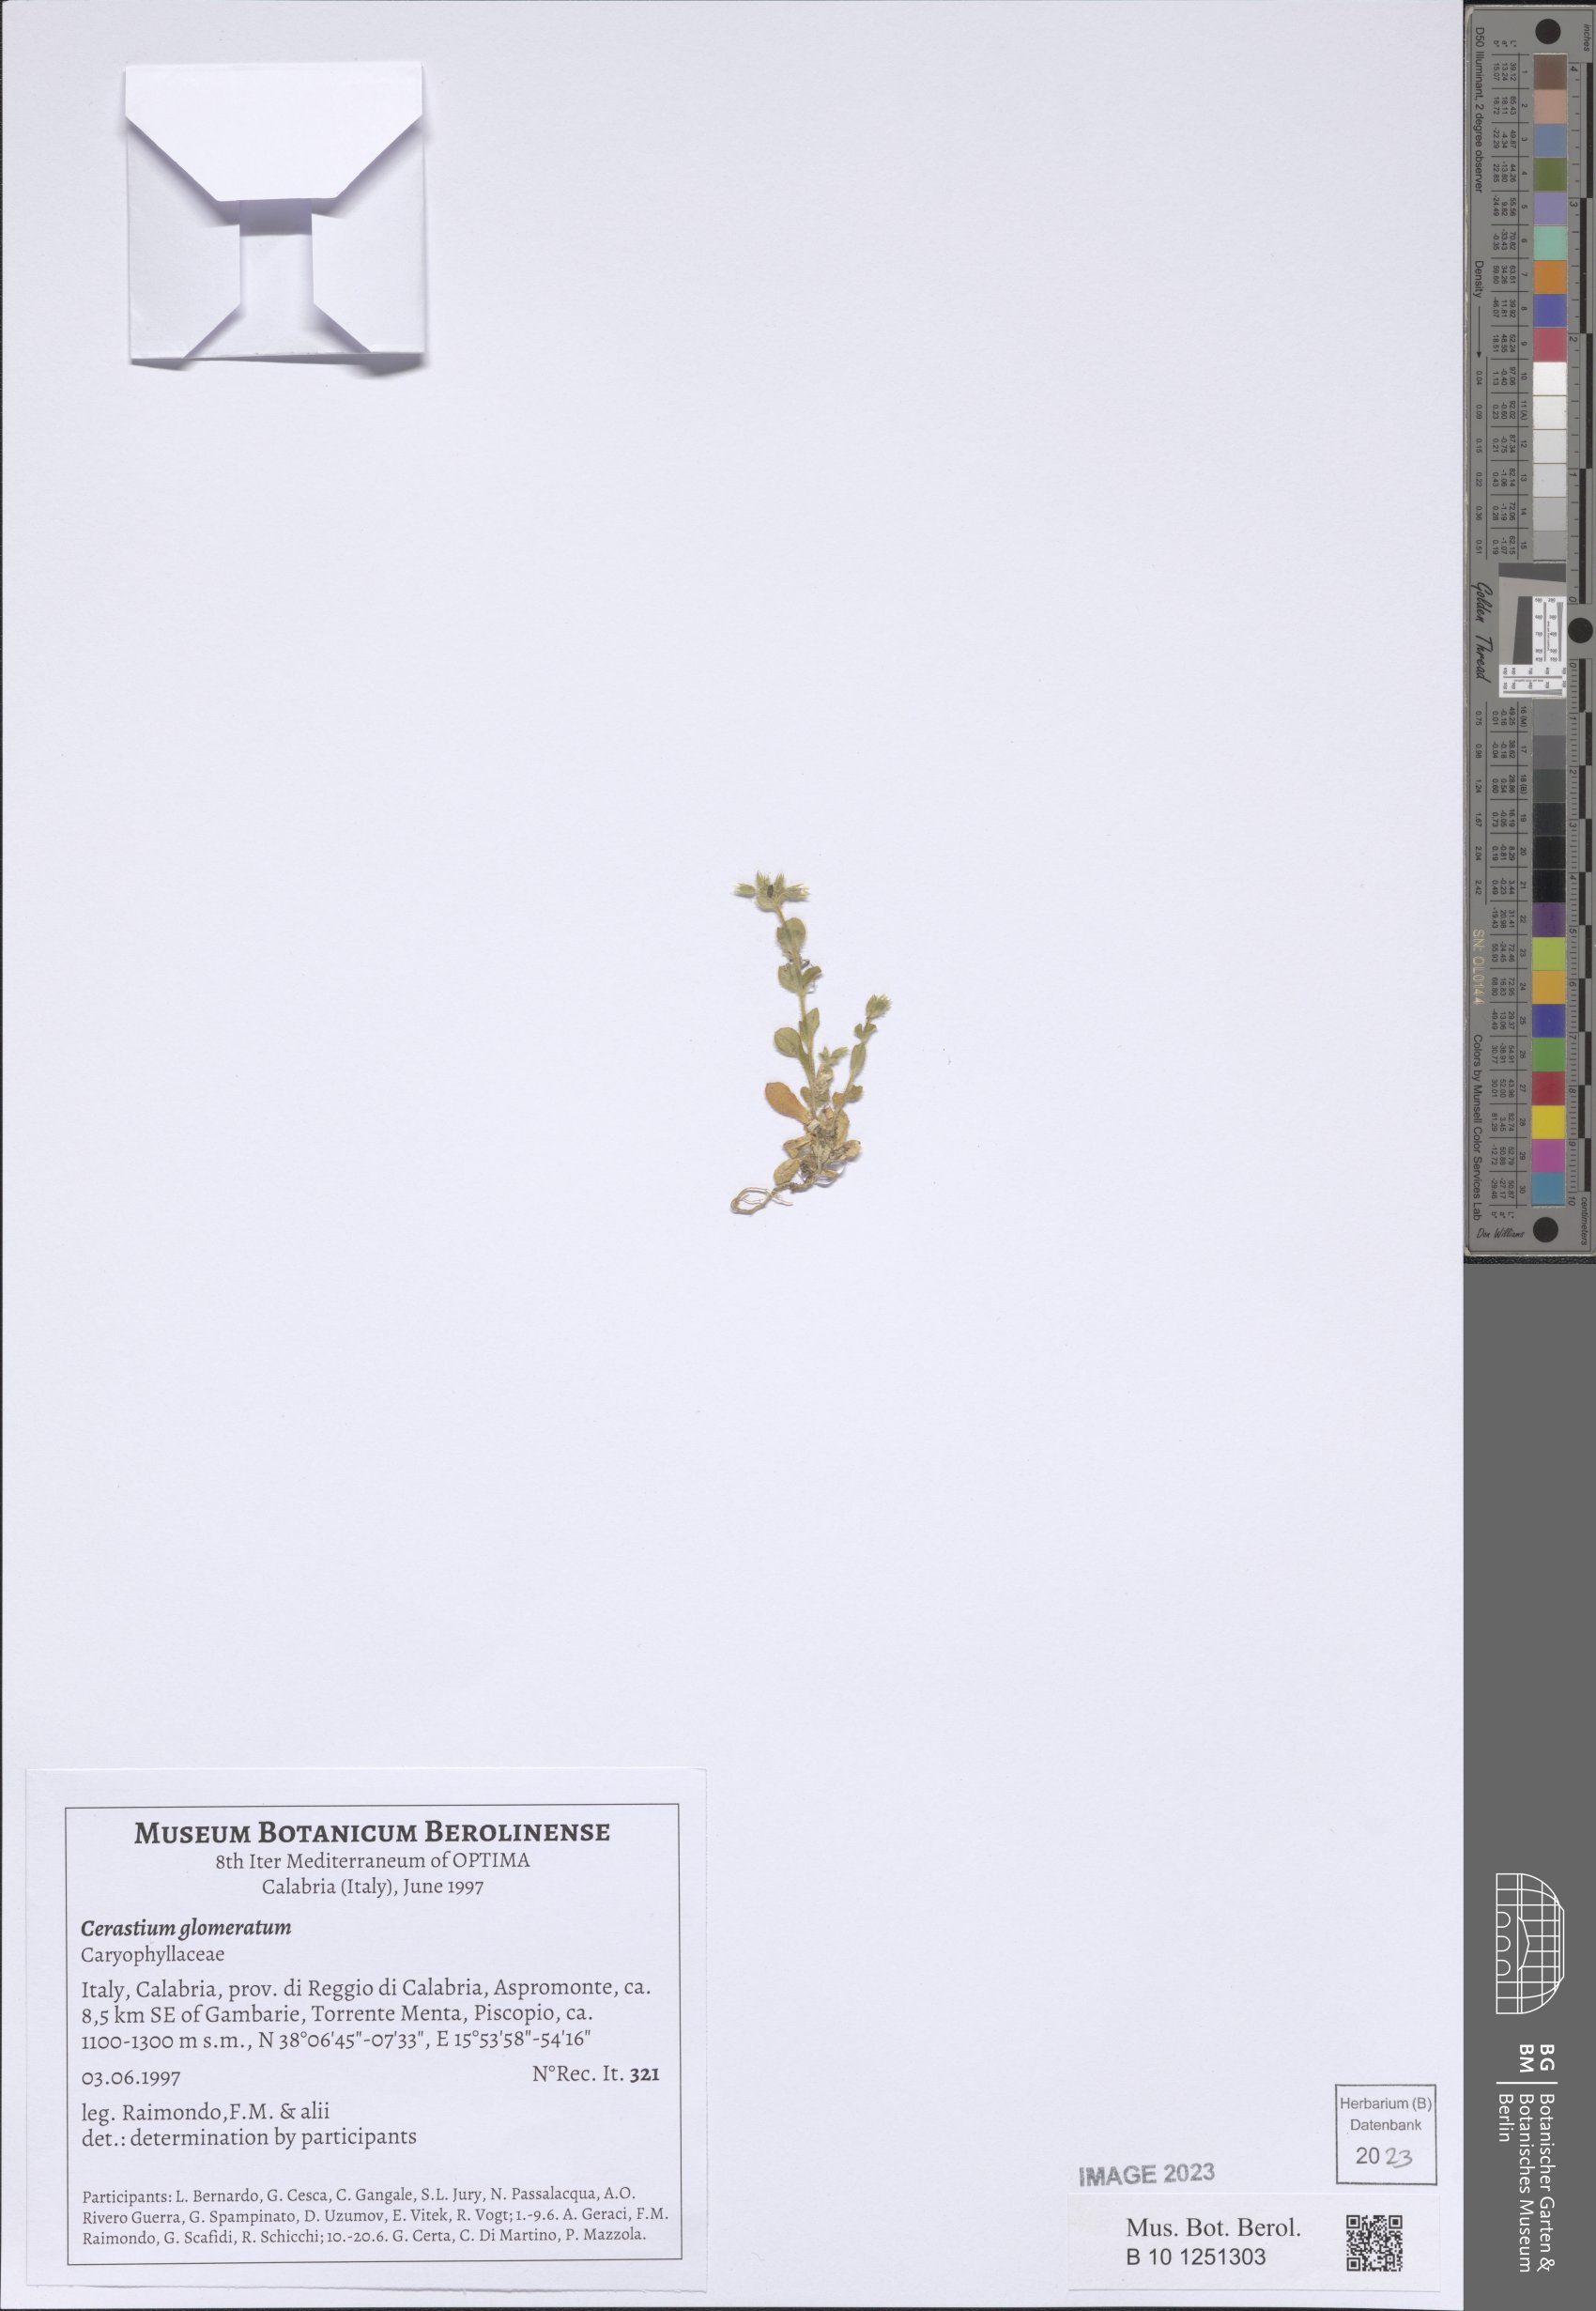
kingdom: Plantae
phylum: Tracheophyta
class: Magnoliopsida
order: Caryophyllales
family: Caryophyllaceae
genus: Cerastium
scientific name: Cerastium glomeratum
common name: Sticky chickweed
